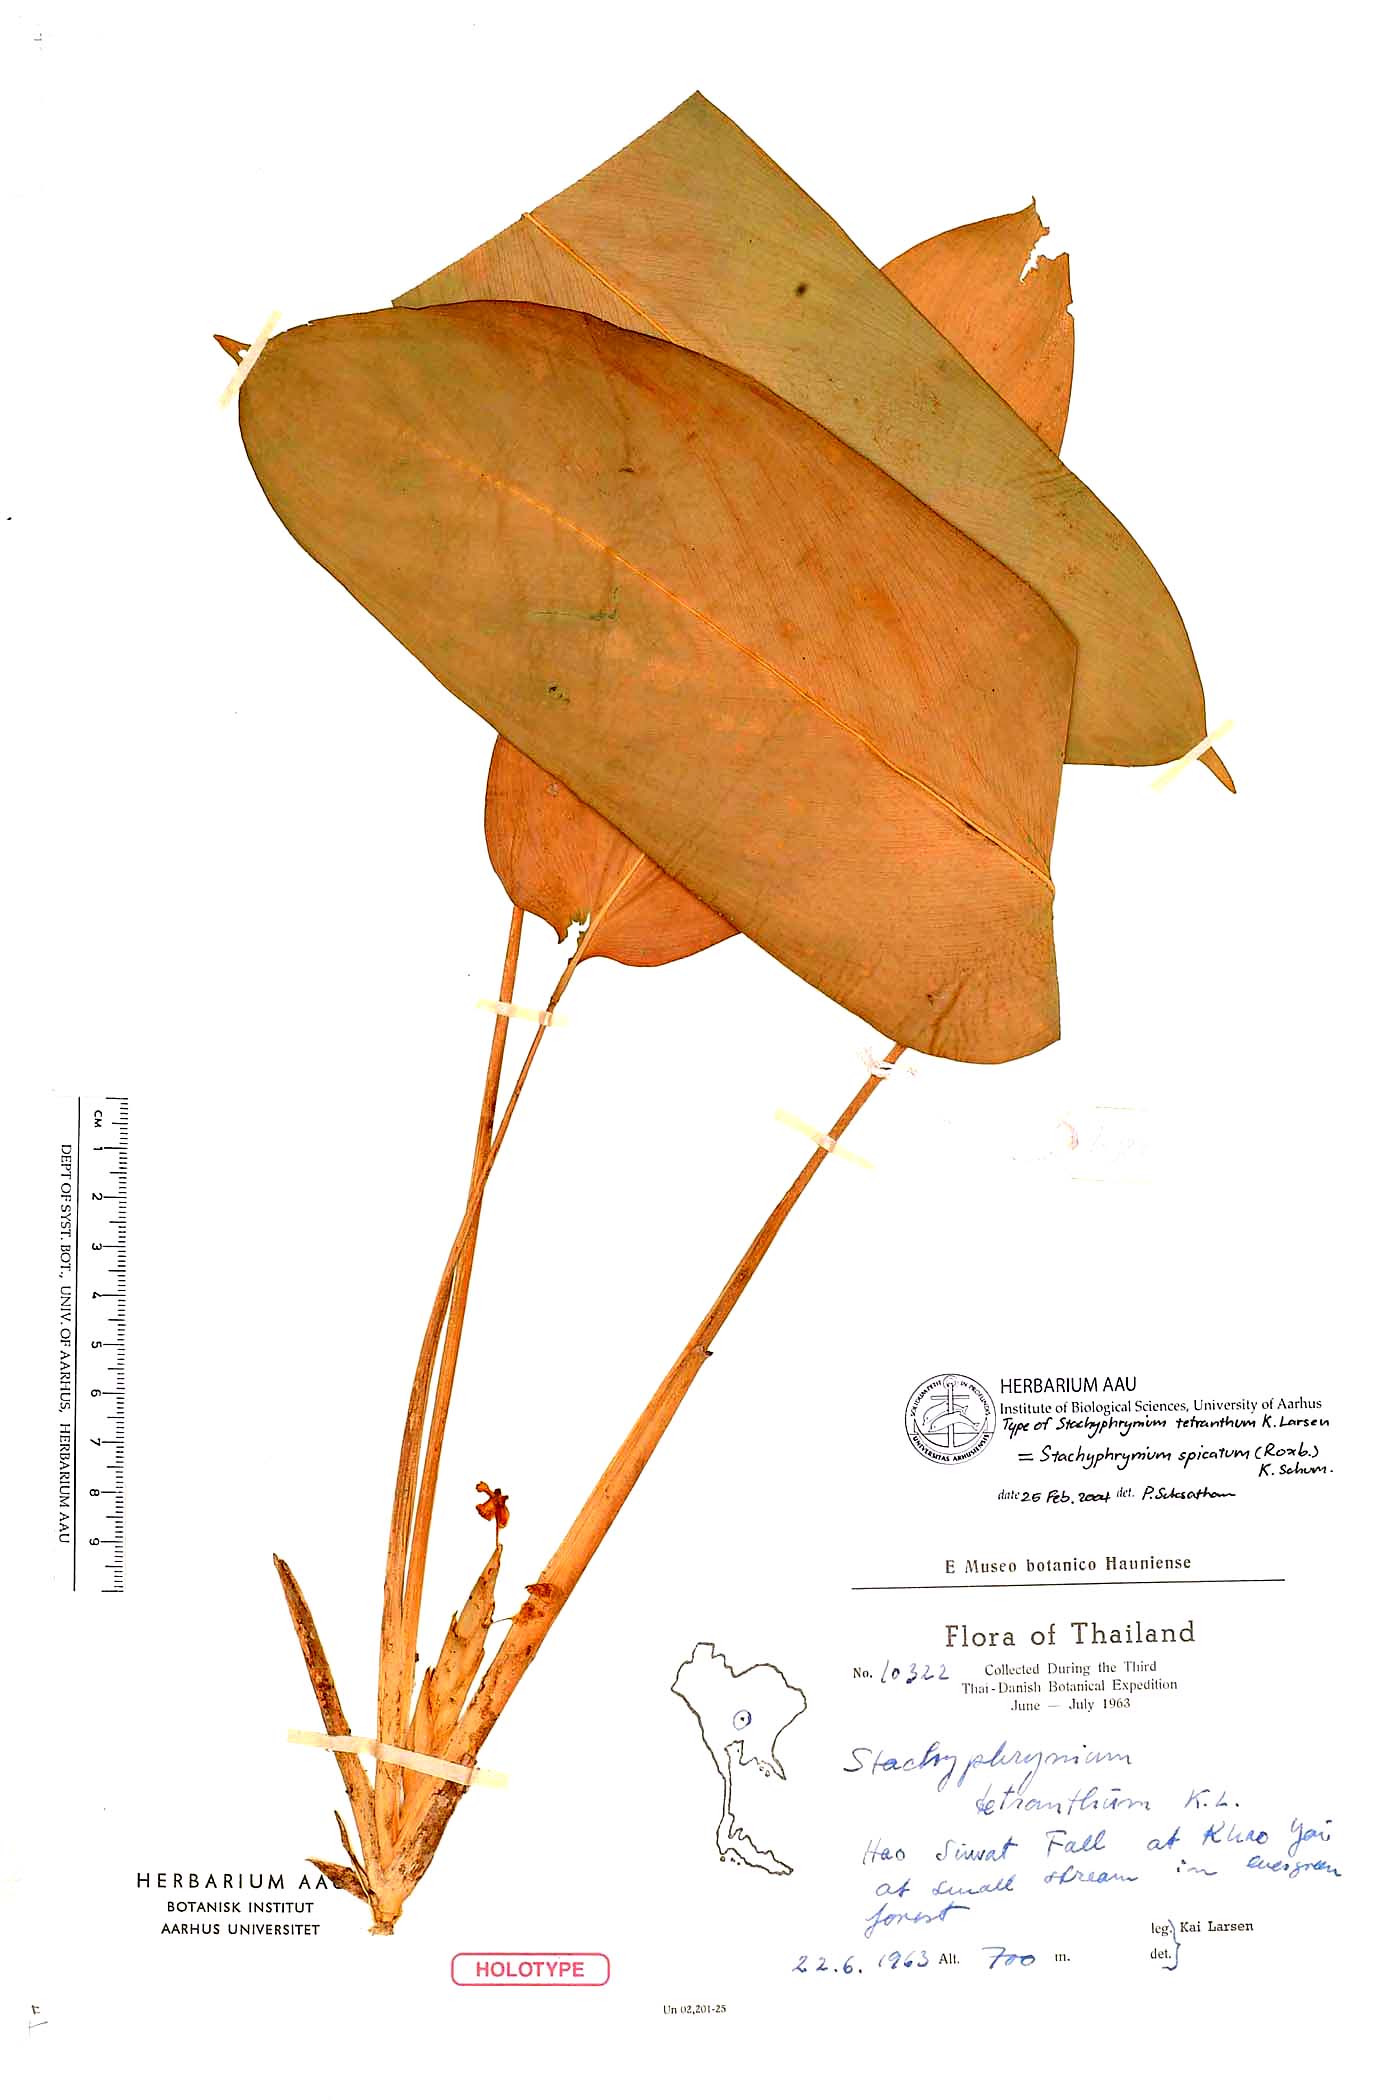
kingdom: Plantae
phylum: Tracheophyta
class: Liliopsida
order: Zingiberales
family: Marantaceae
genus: Stachyphrynium
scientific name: Stachyphrynium spicatum
